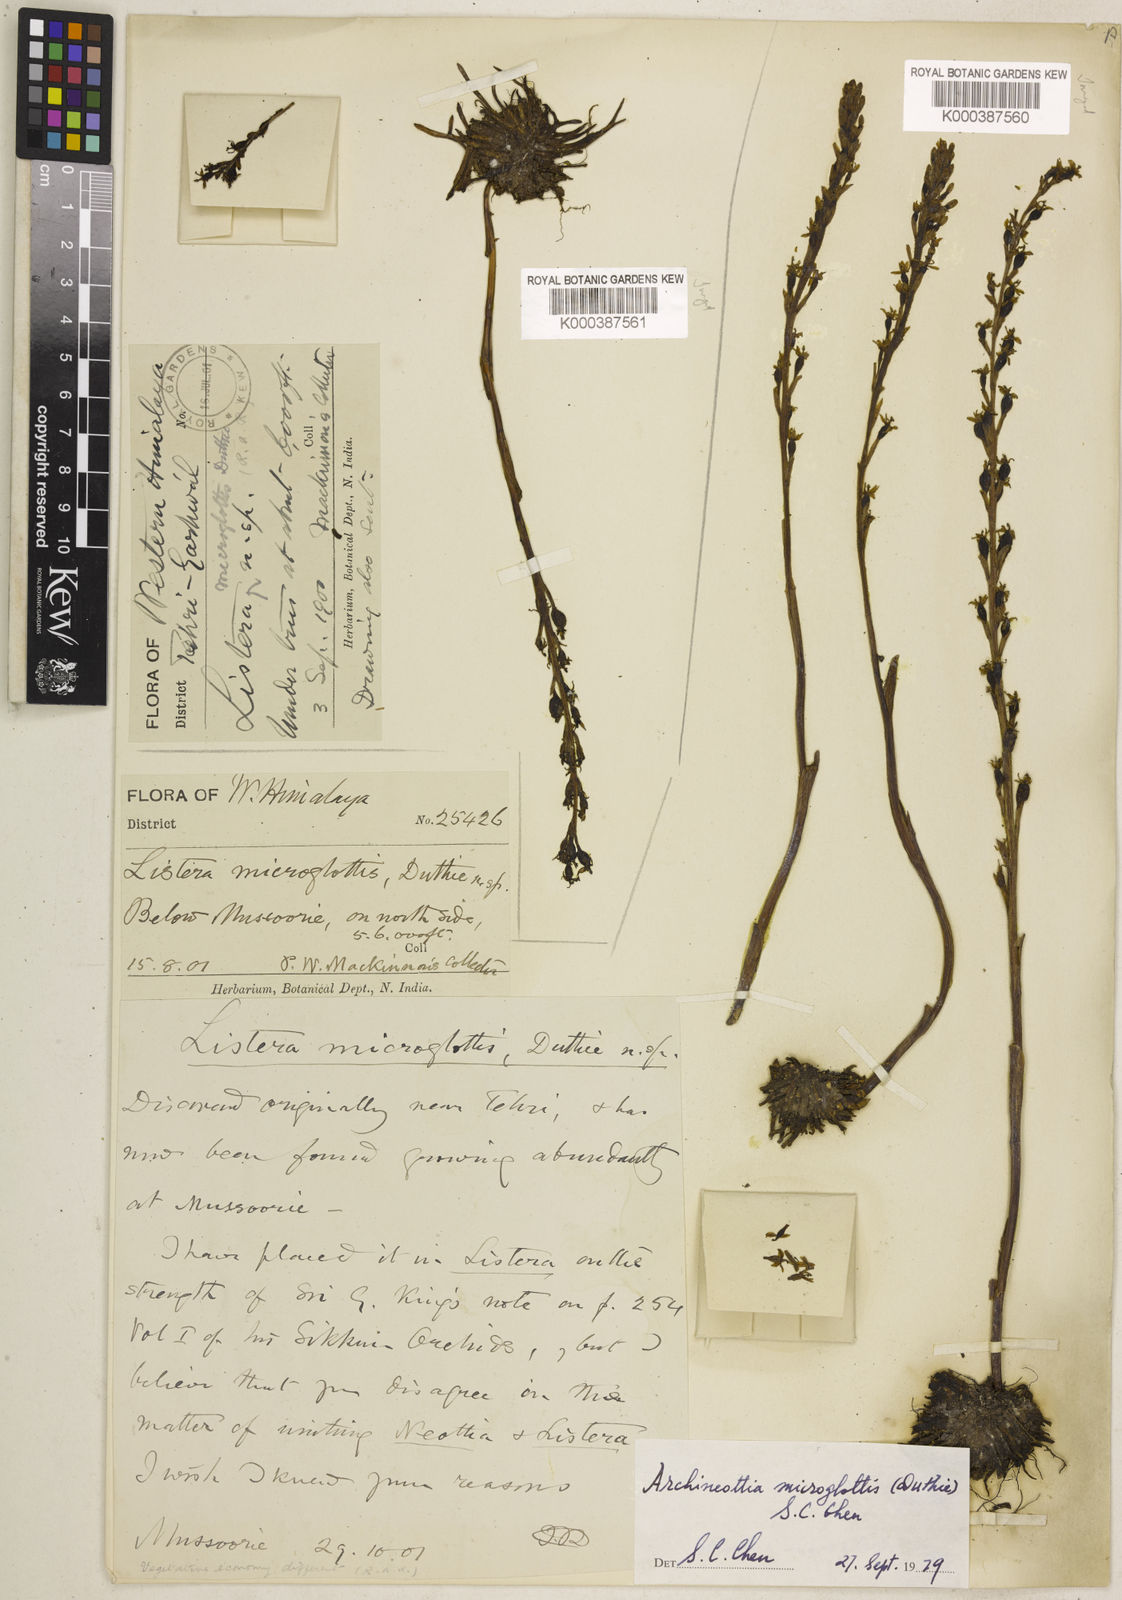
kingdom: Plantae
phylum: Tracheophyta
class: Liliopsida
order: Asparagales
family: Orchidaceae
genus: Neottia
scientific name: Neottia microglottis
